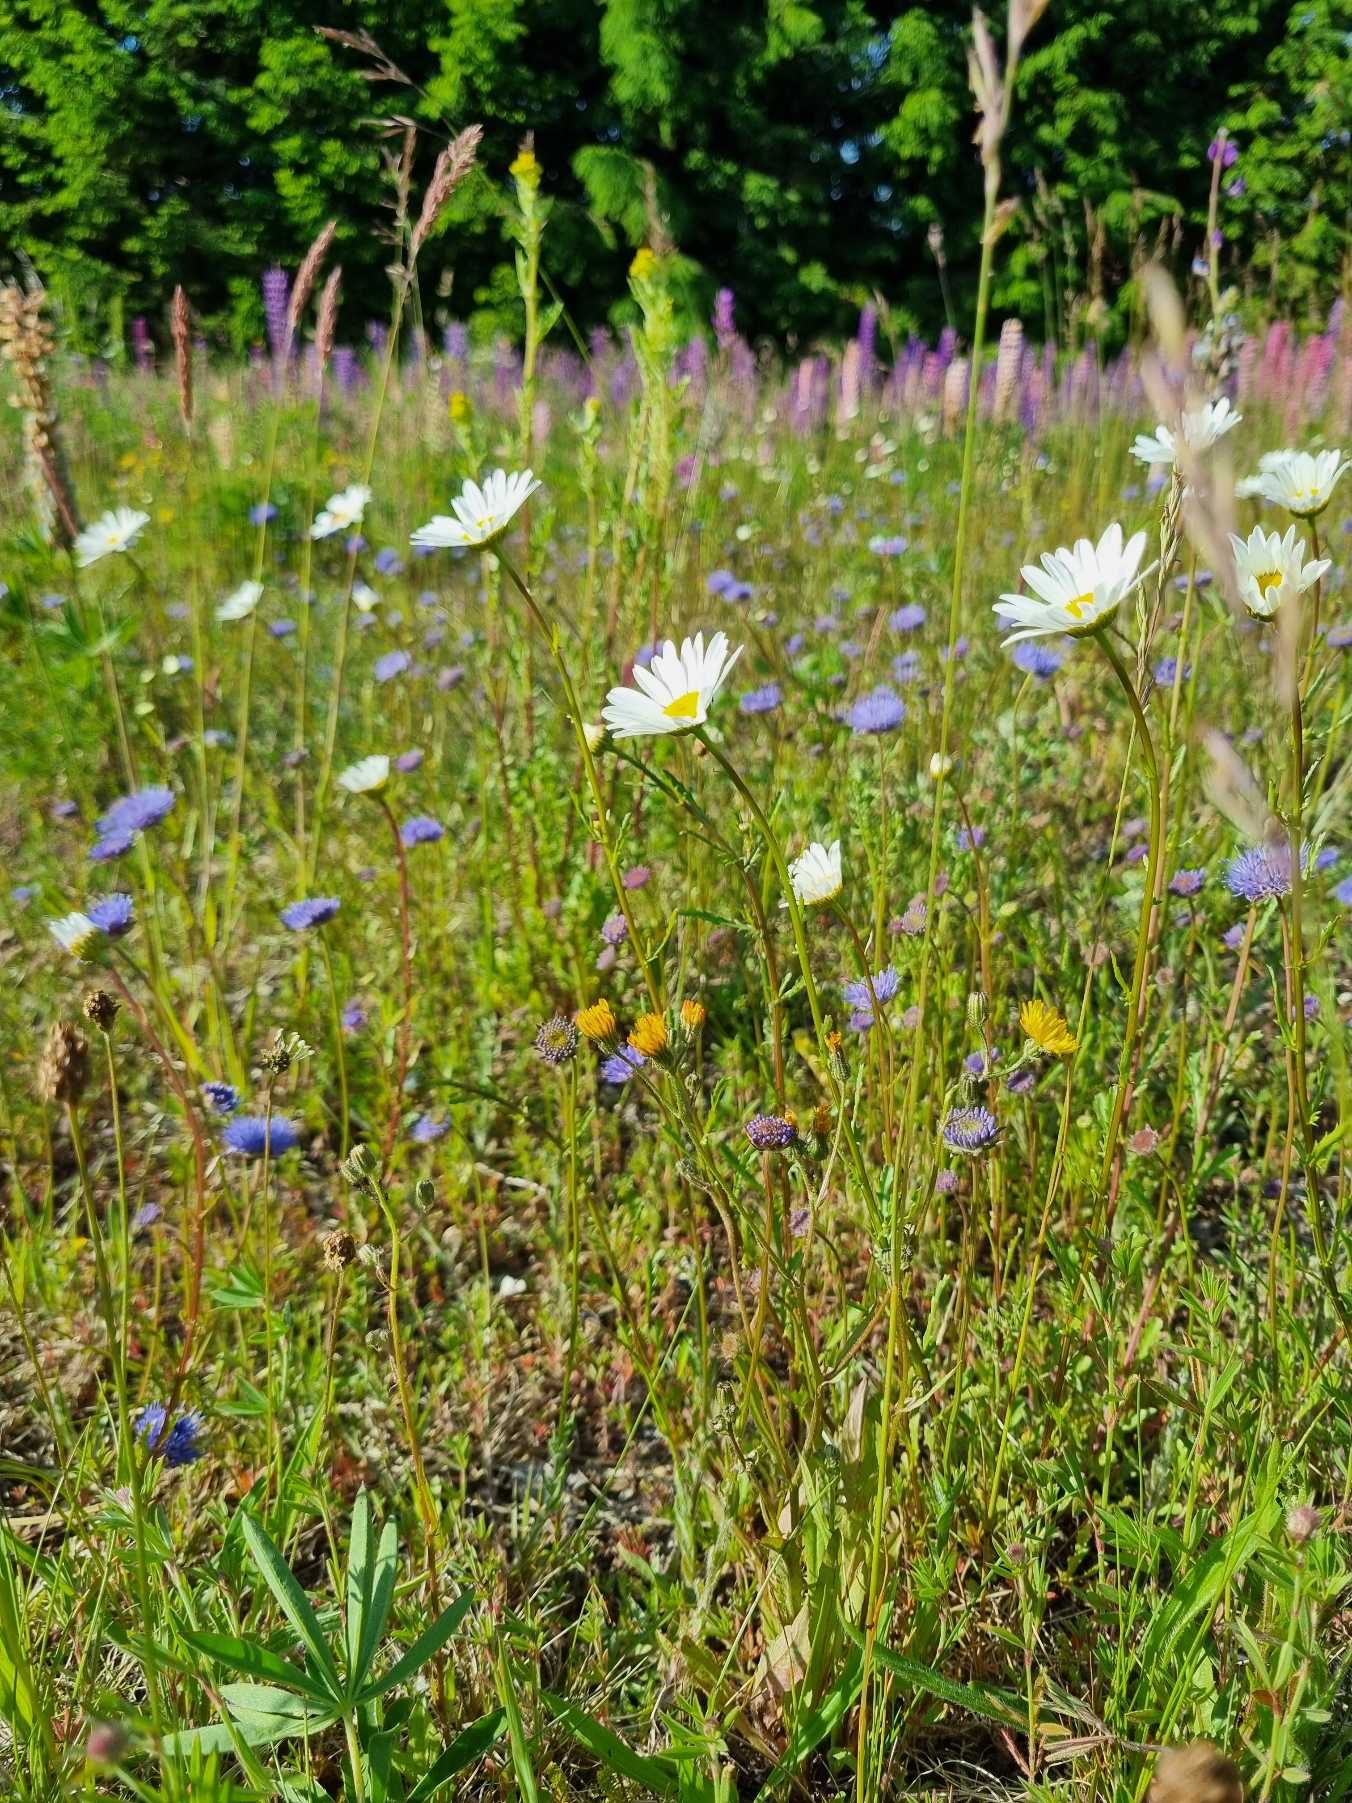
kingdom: Plantae
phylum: Tracheophyta
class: Magnoliopsida
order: Asterales
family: Asteraceae
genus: Leucanthemum
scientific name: Leucanthemum vulgare
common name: Hvid okseøje
